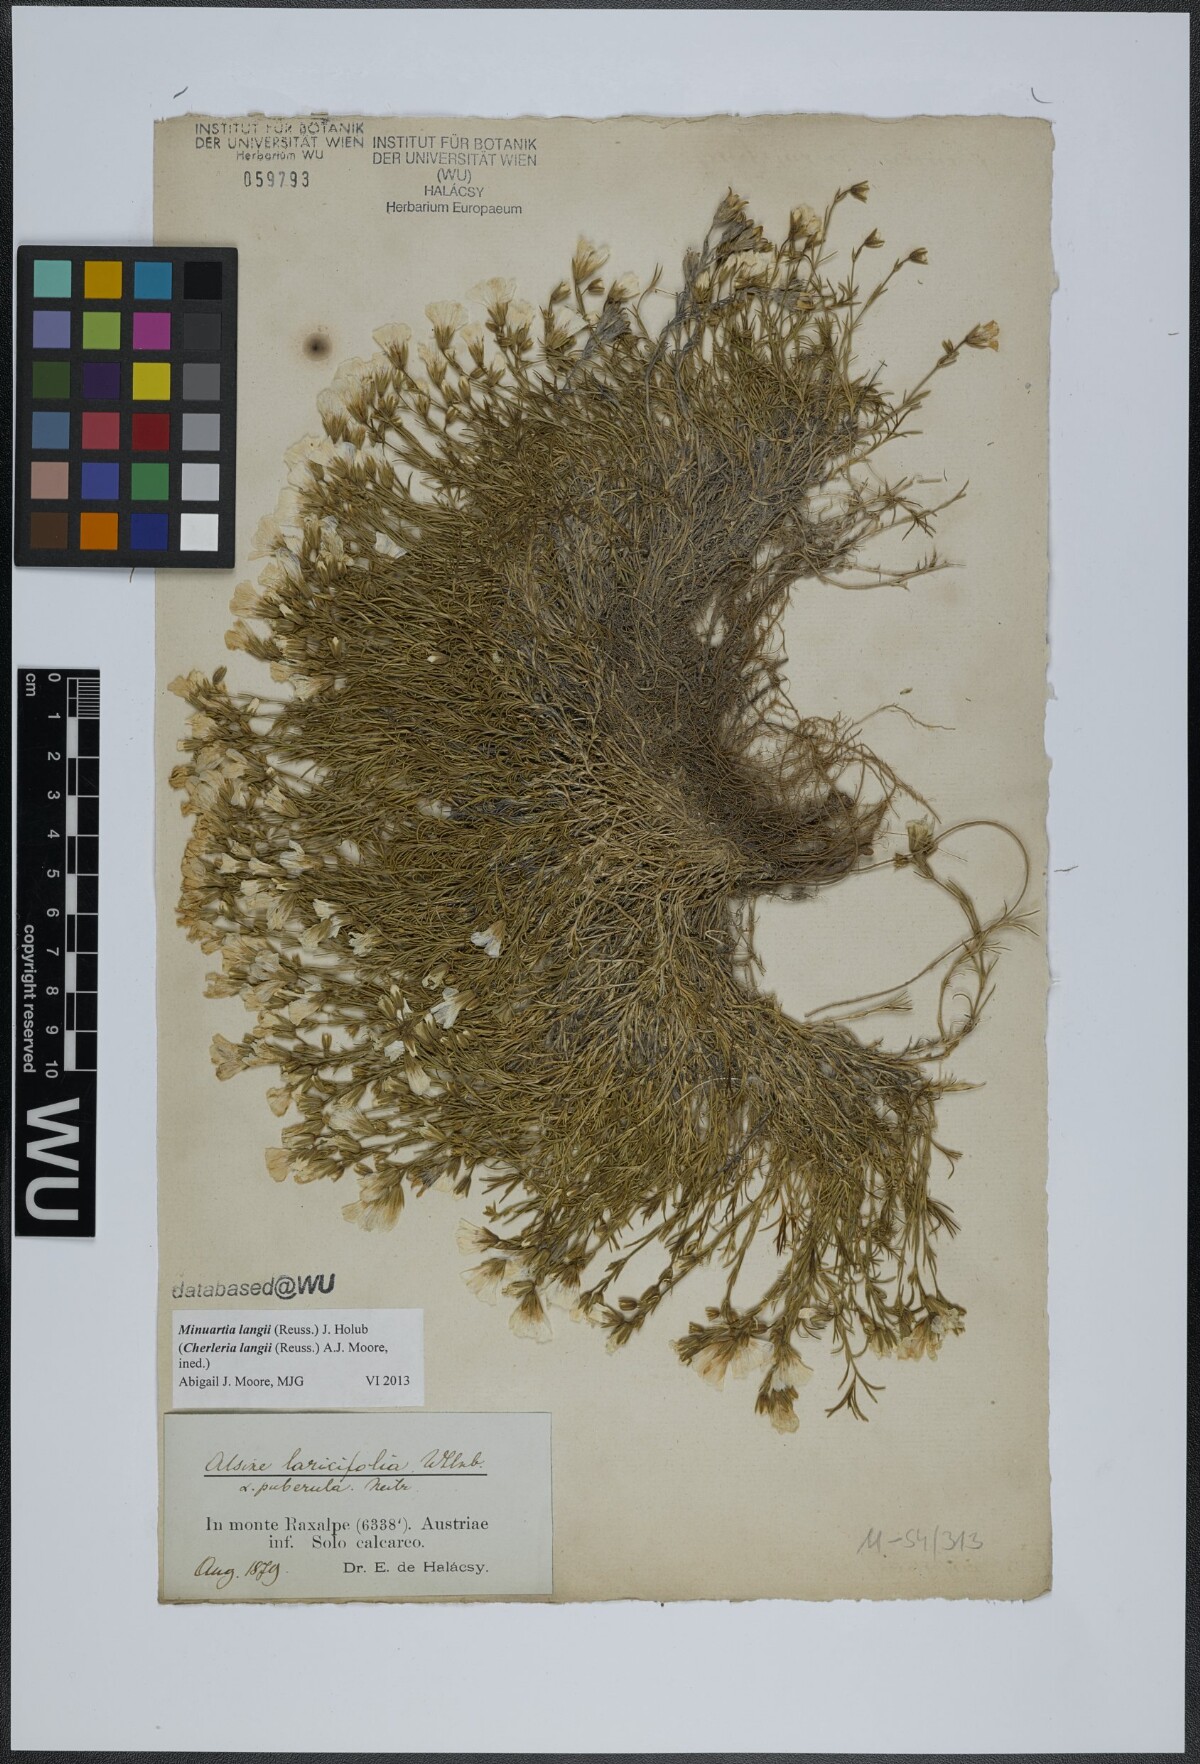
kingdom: Plantae
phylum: Tracheophyta
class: Magnoliopsida
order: Caryophyllales
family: Caryophyllaceae
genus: Cherleria
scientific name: Cherleria langii
